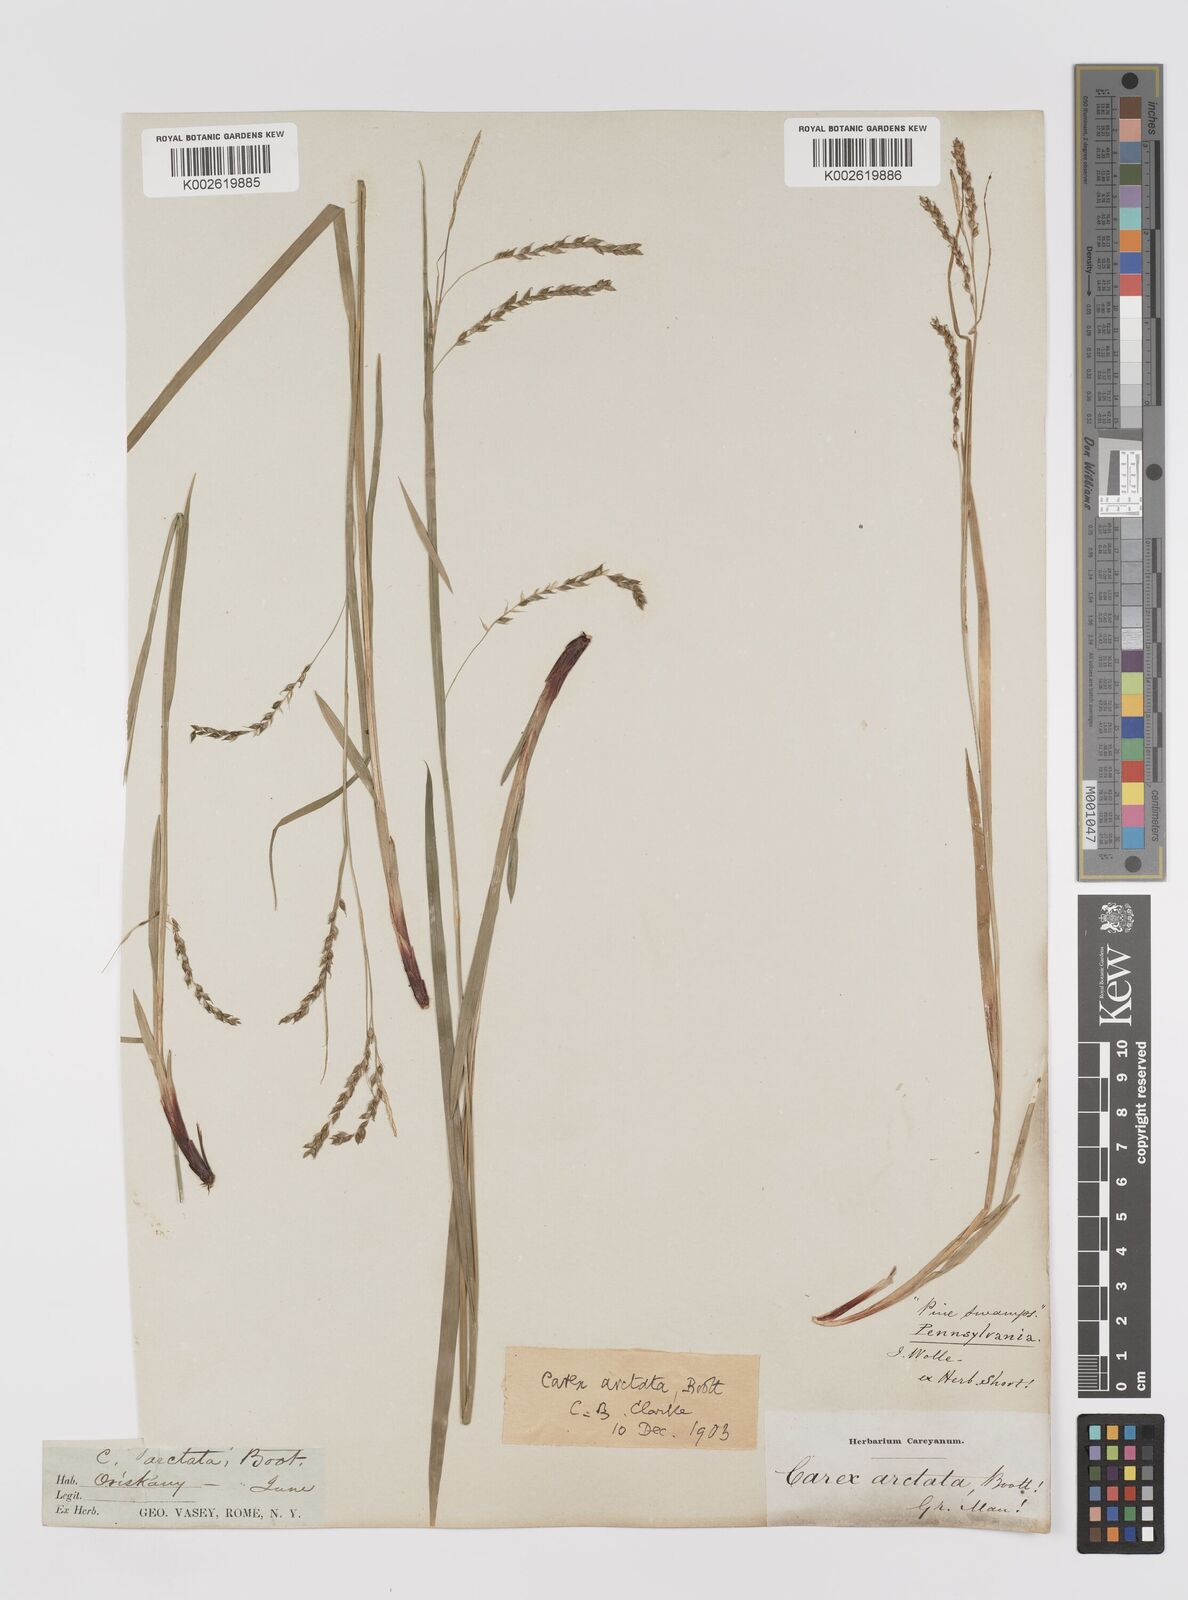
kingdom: Plantae
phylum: Tracheophyta
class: Liliopsida
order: Poales
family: Cyperaceae
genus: Carex
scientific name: Carex arctata
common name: Black sedge
